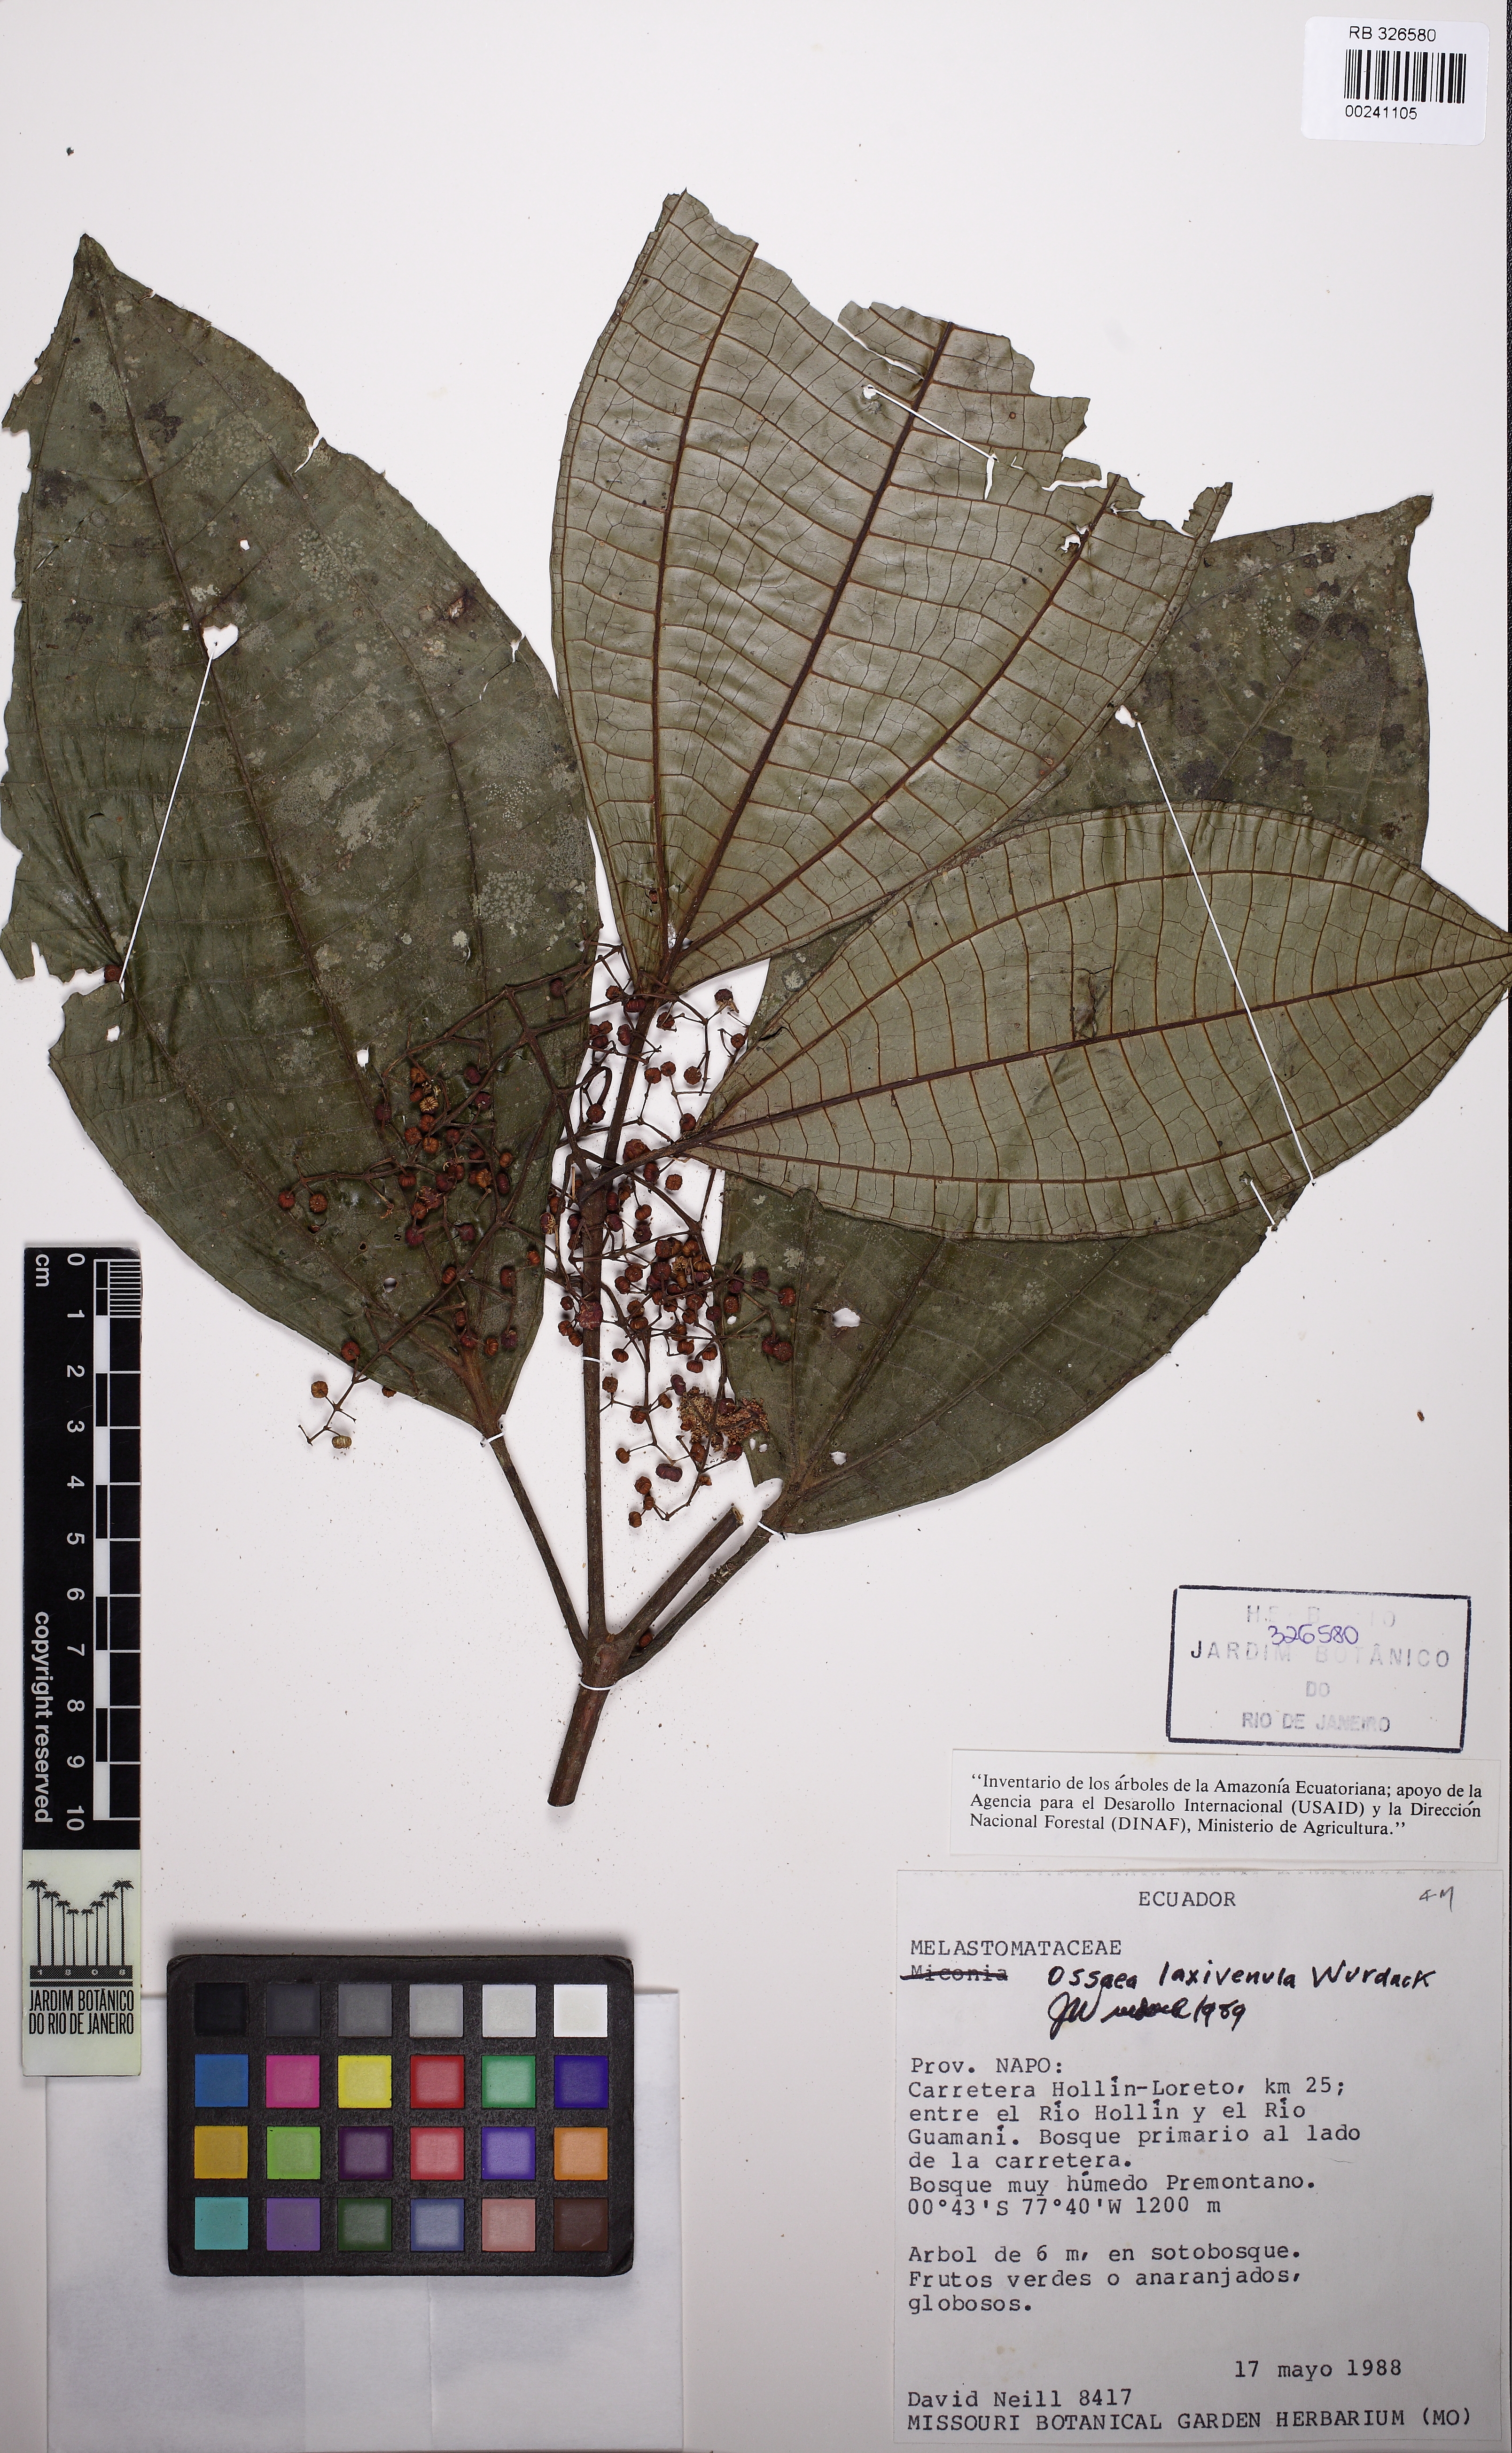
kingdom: Plantae
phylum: Tracheophyta
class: Magnoliopsida
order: Myrtales
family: Melastomataceae
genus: Miconia
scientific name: Miconia laxivenula
